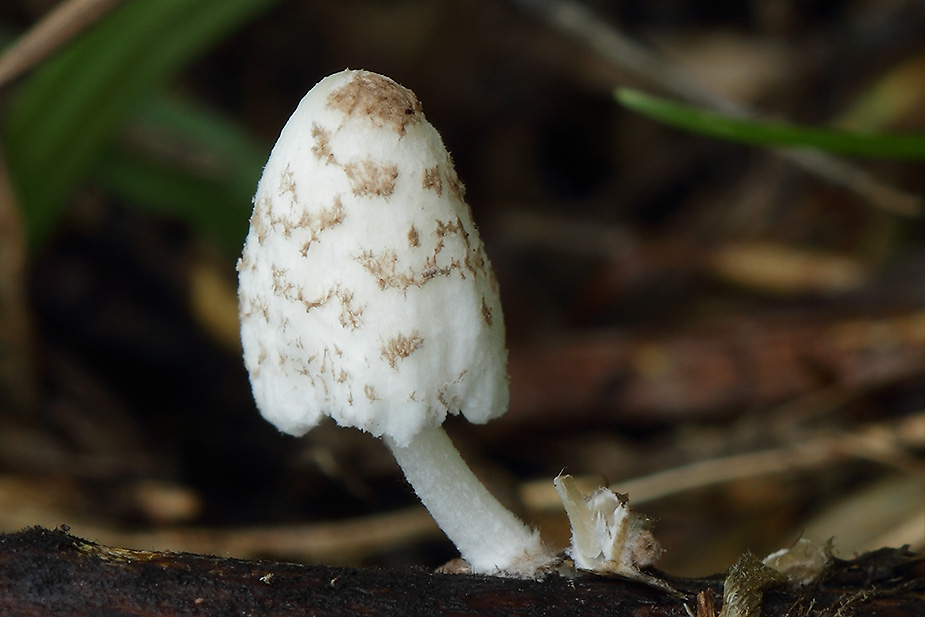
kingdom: Fungi
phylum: Basidiomycota
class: Agaricomycetes
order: Agaricales
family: Psathyrellaceae
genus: Coprinopsis
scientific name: Coprinopsis pseudofriesii
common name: gulfnugget blækhat
